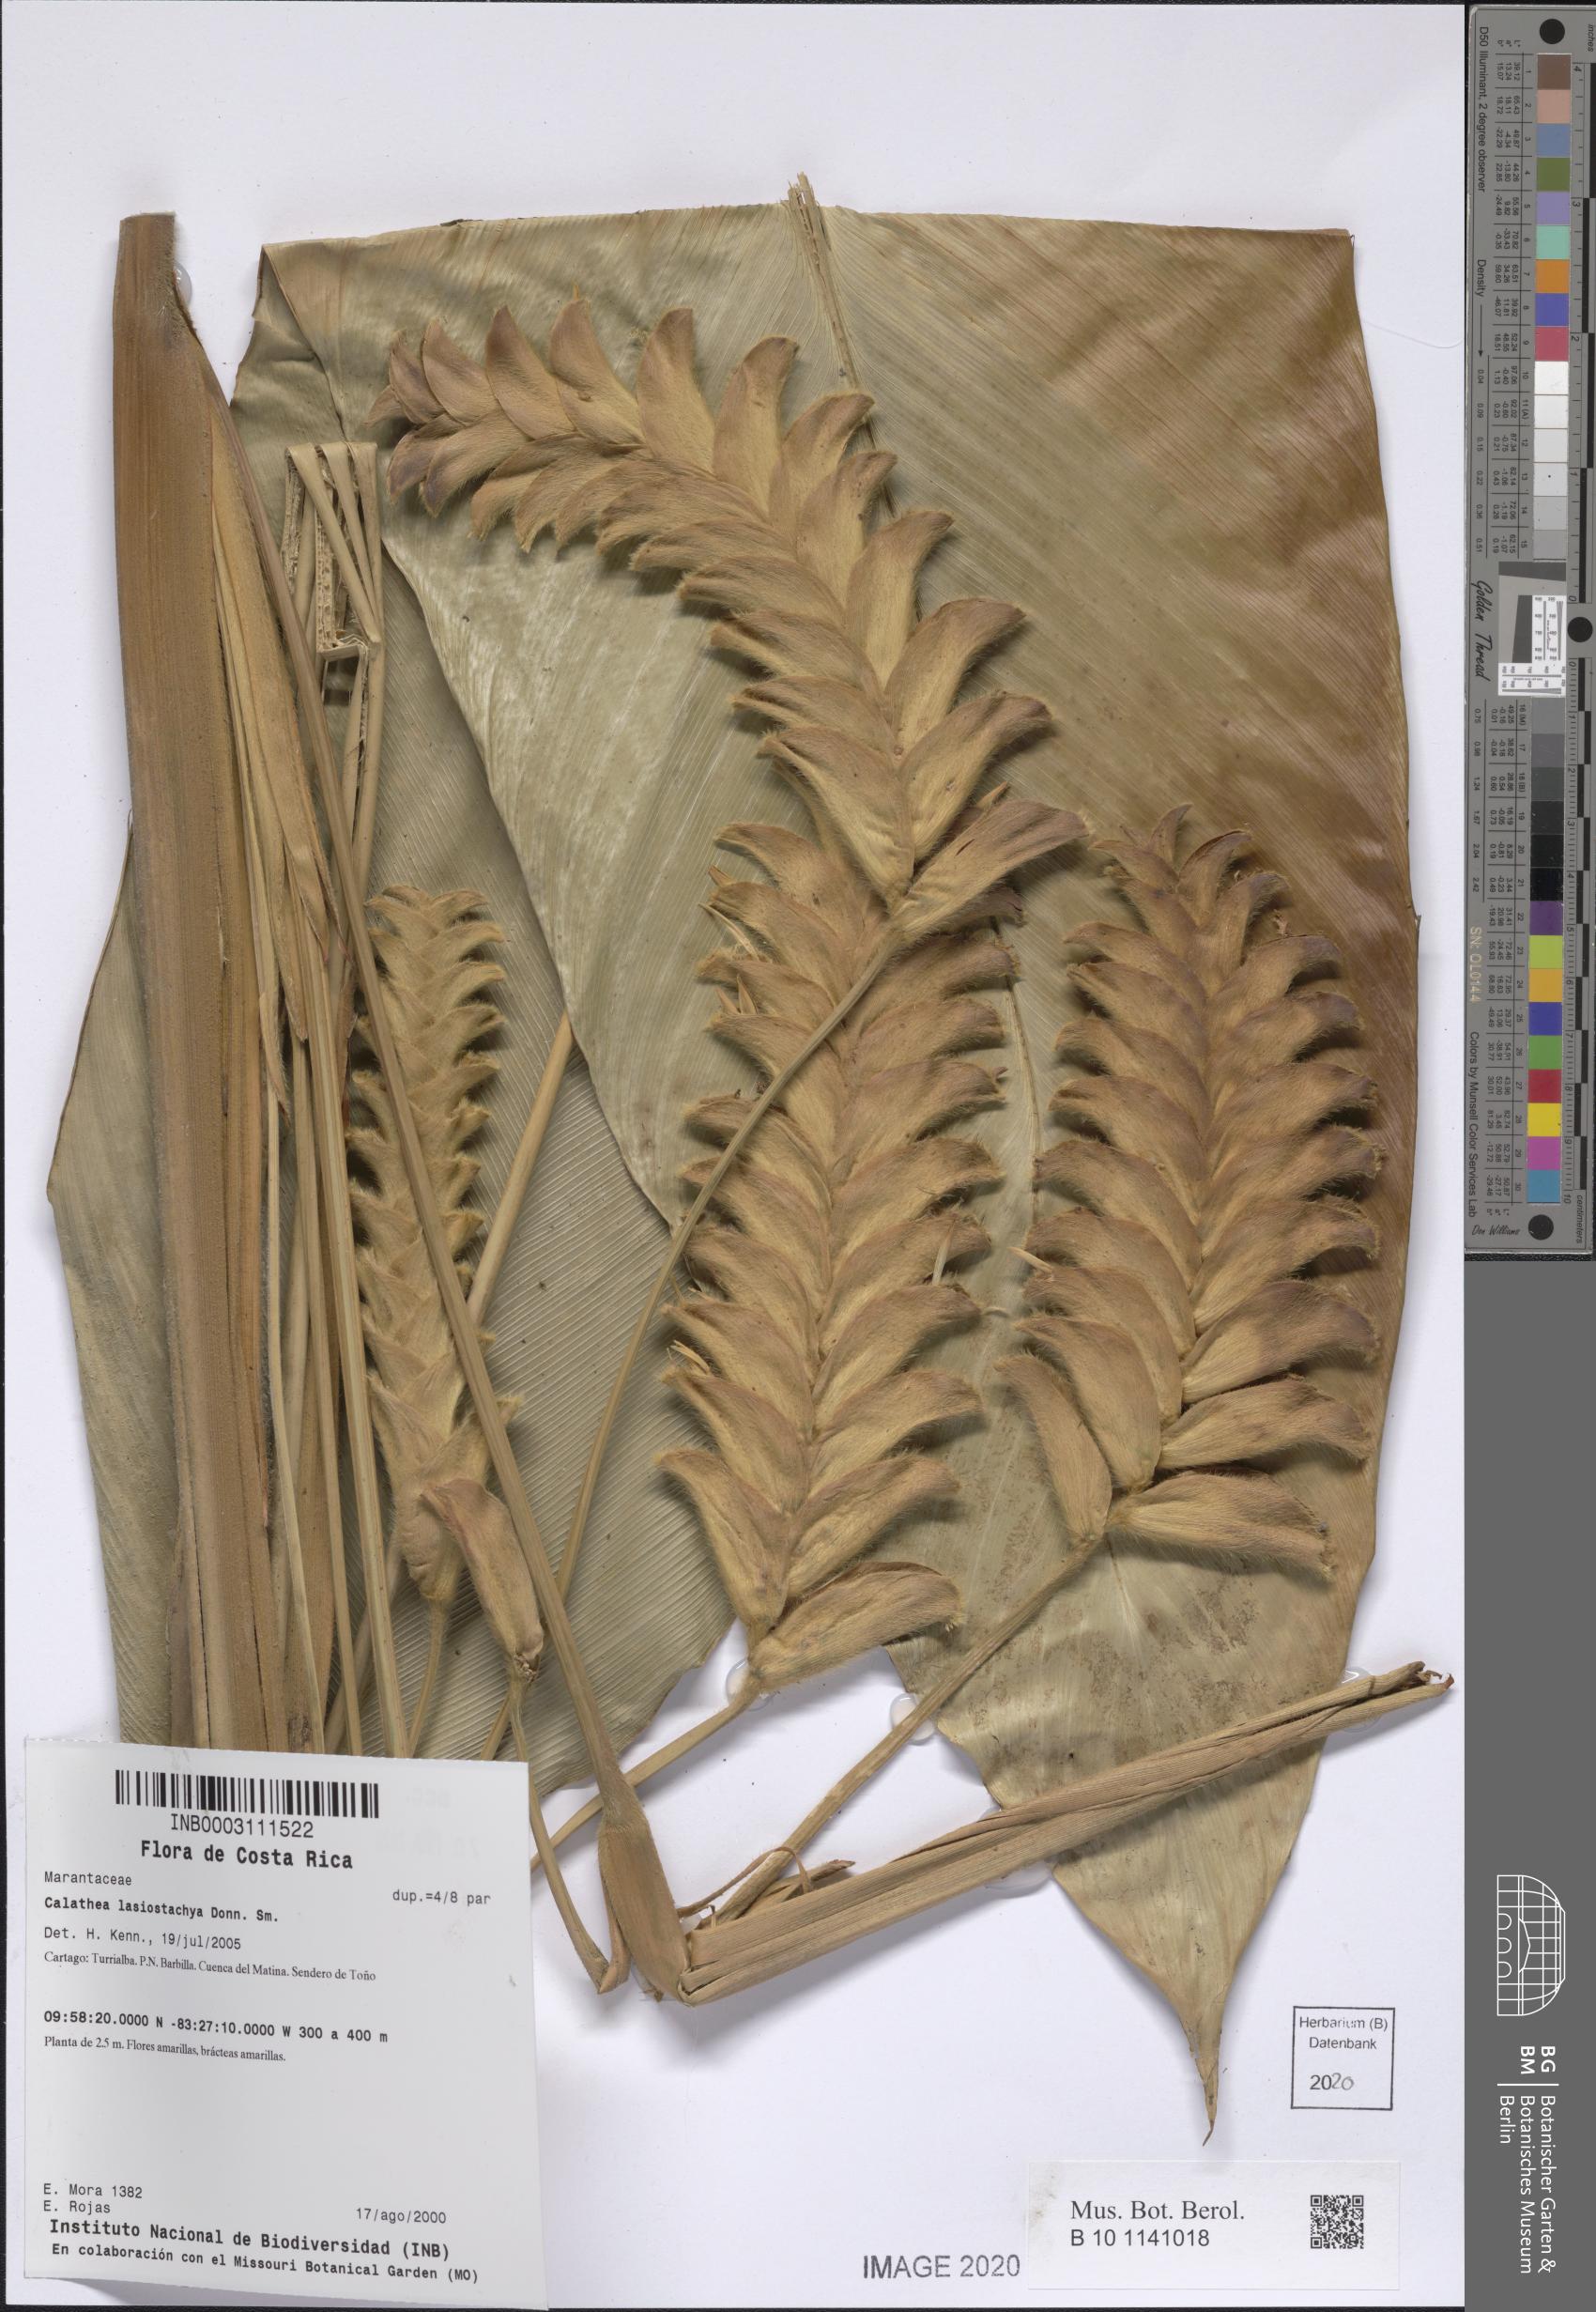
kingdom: Plantae
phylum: Tracheophyta
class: Liliopsida
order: Zingiberales
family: Marantaceae
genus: Calathea
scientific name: Calathea lasiostachya
